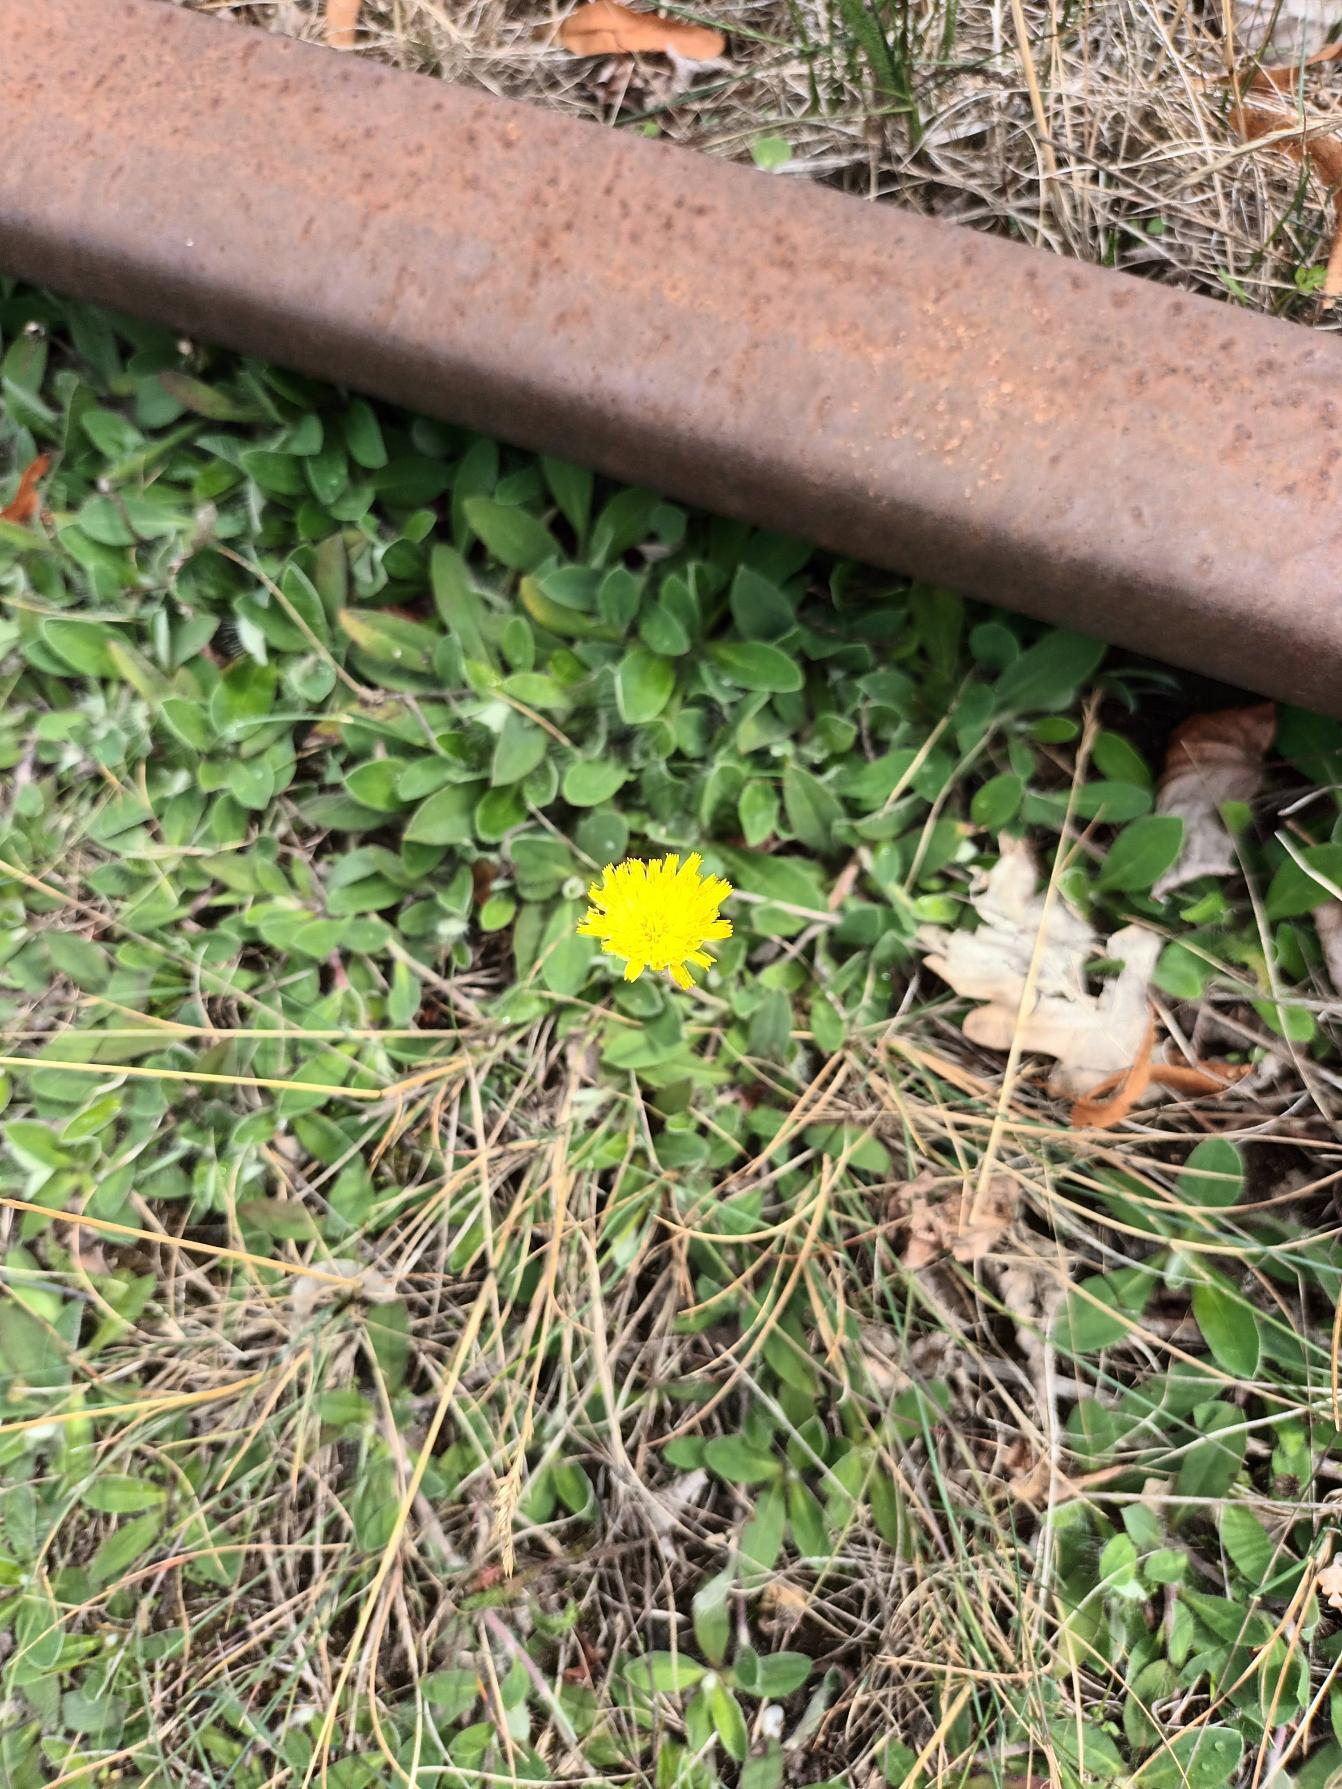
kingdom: Plantae
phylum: Tracheophyta
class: Magnoliopsida
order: Asterales
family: Asteraceae
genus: Pilosella
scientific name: Pilosella officinarum
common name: Håret høgeurt
